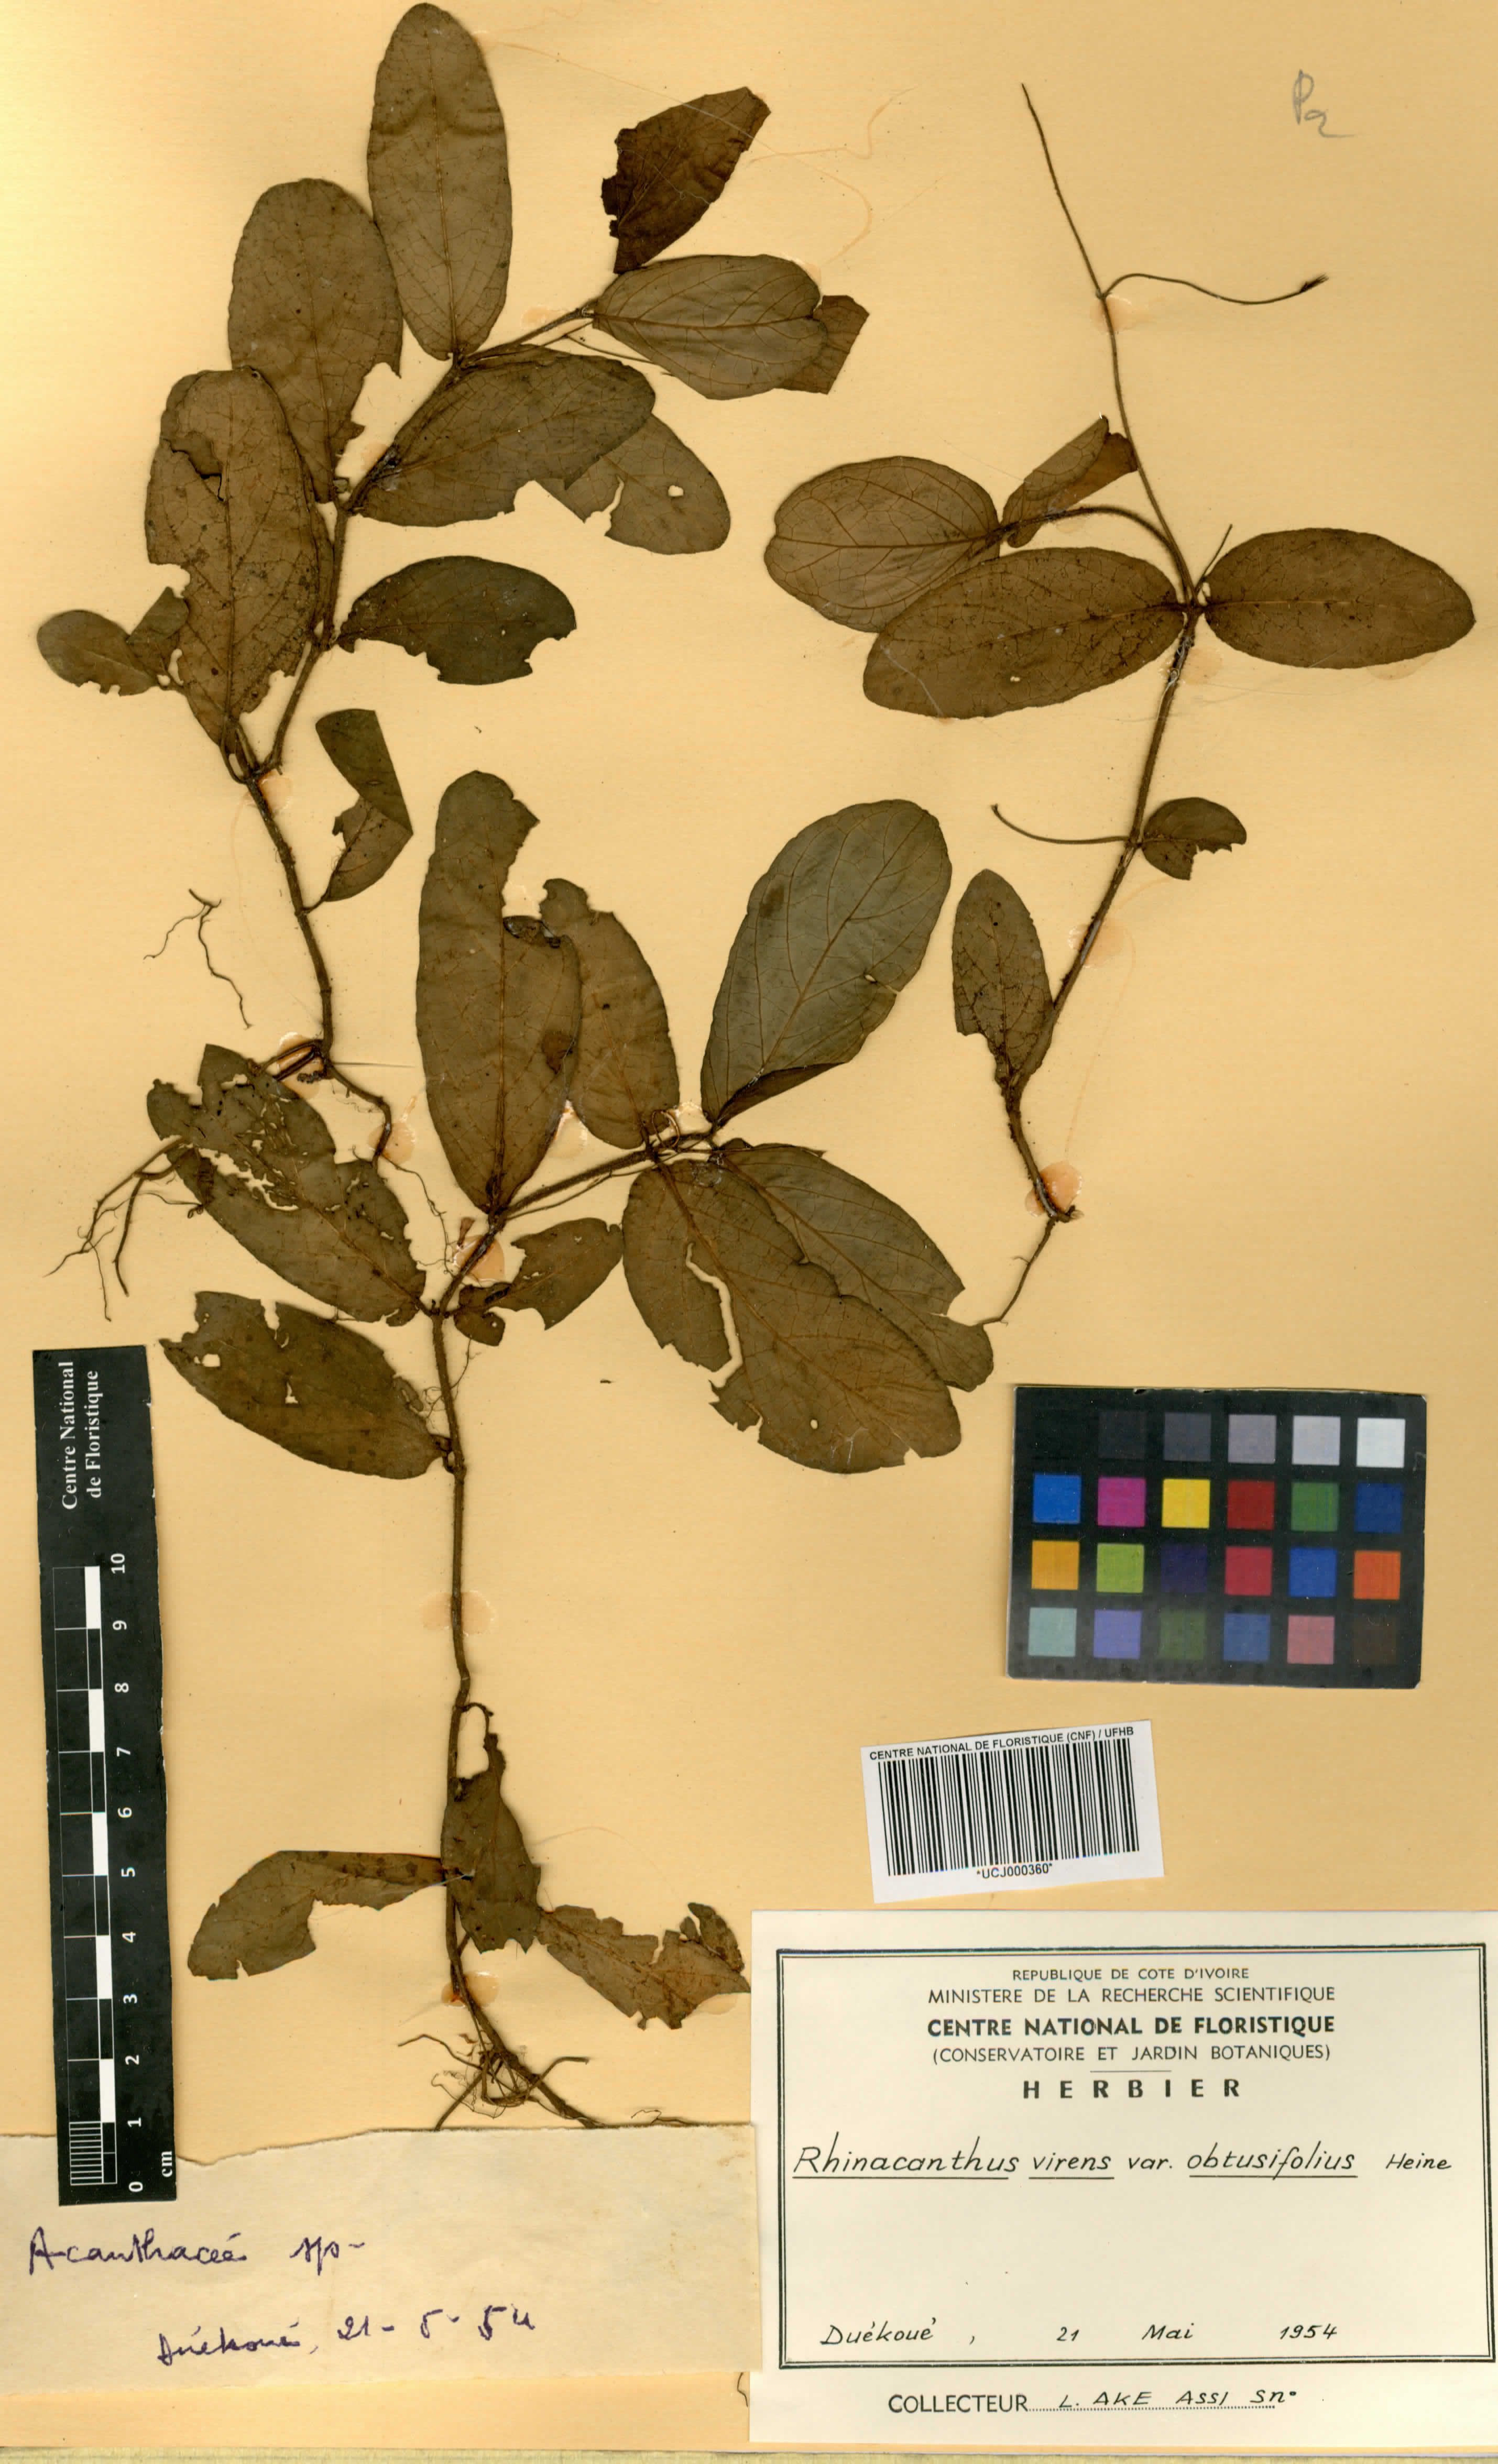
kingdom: Plantae
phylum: Tracheophyta
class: Magnoliopsida
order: Lamiales
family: Acanthaceae
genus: Rhinacanthus
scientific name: Rhinacanthus obtusifolius
